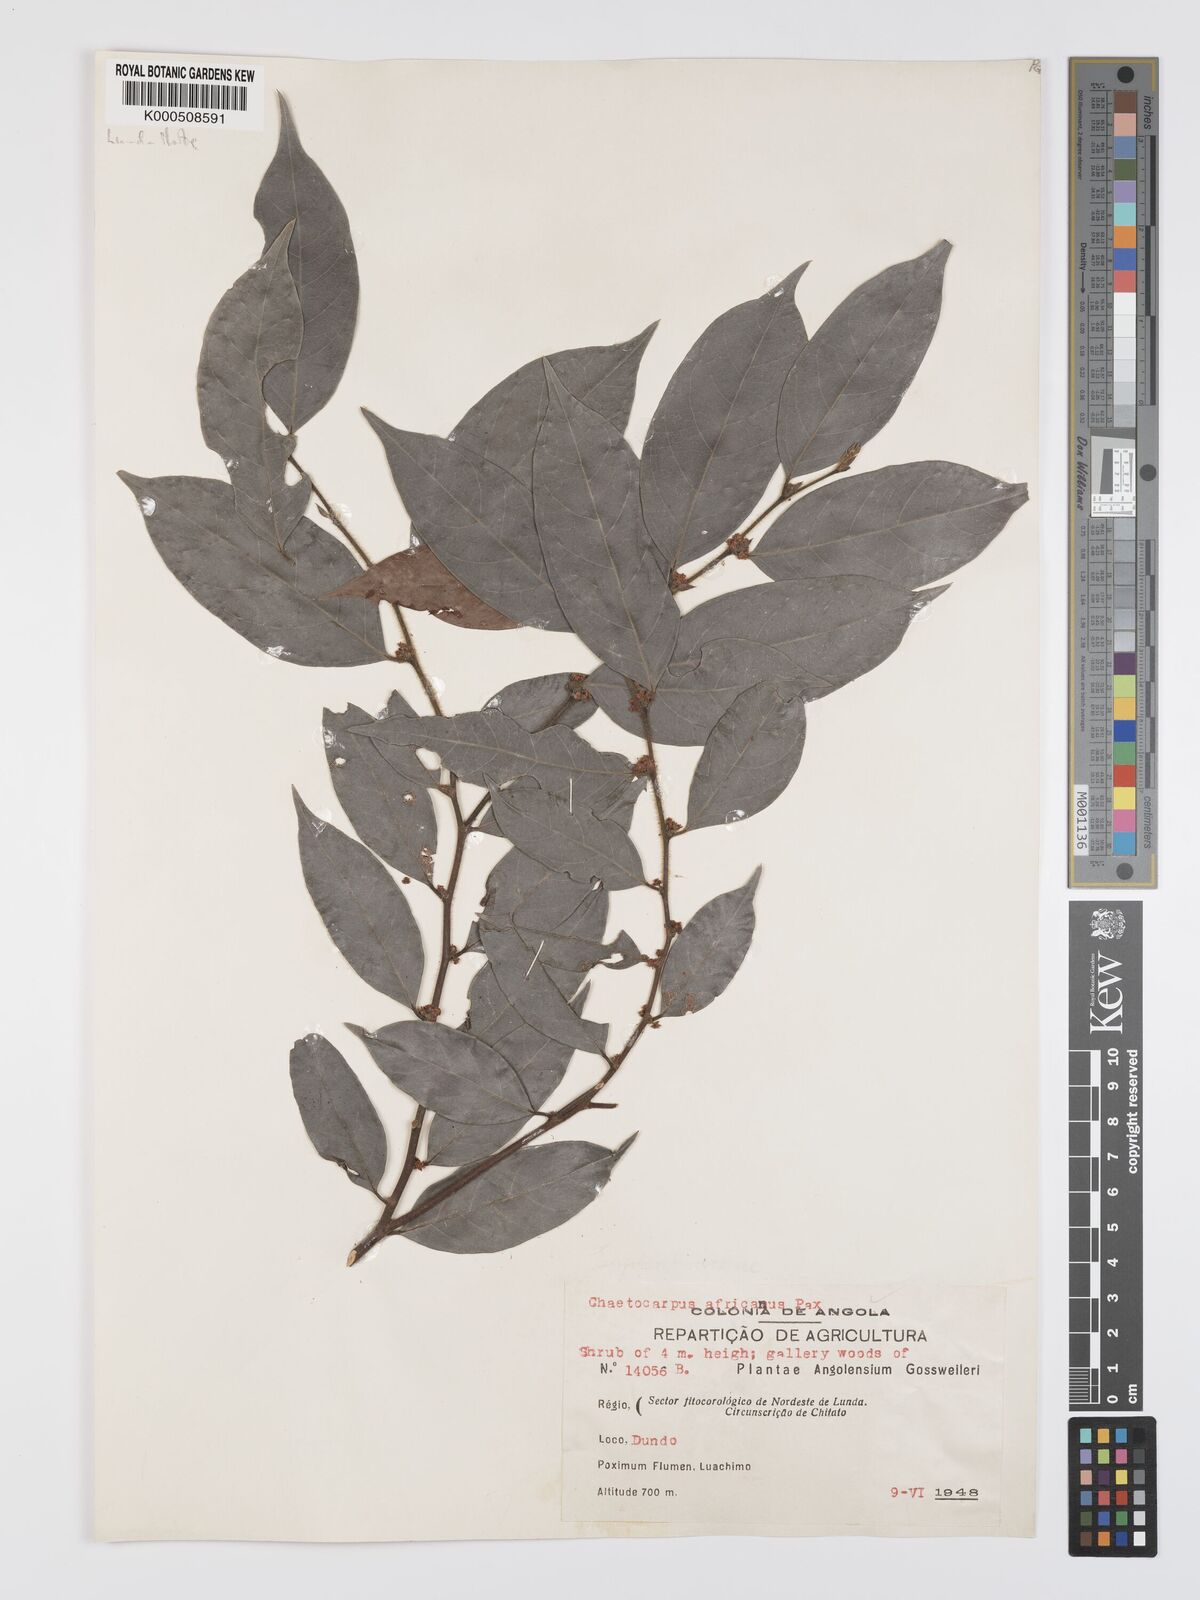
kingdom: Plantae
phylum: Tracheophyta
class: Magnoliopsida
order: Malpighiales
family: Peraceae
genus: Chaetocarpus
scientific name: Chaetocarpus africanus
